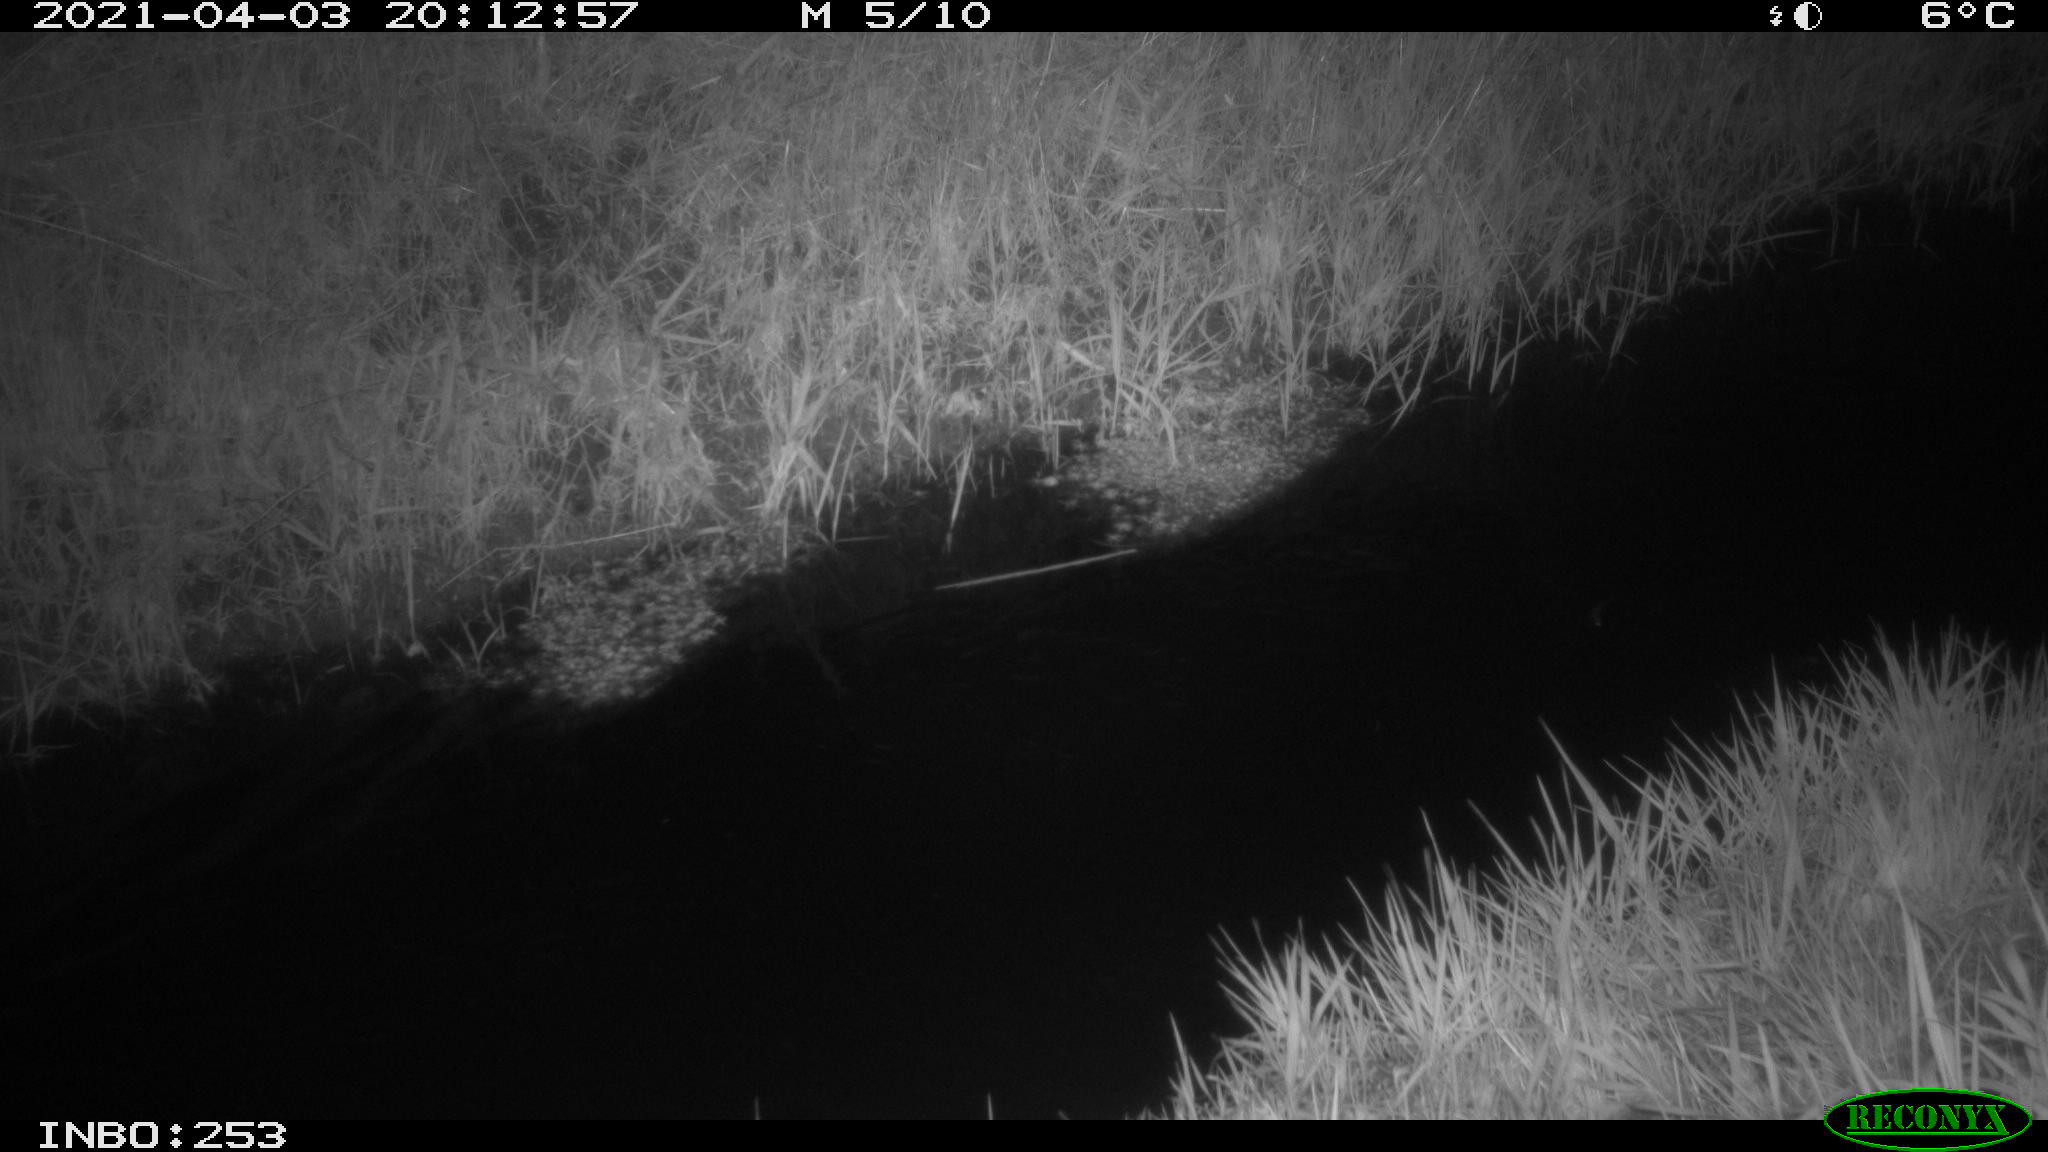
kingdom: Animalia
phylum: Chordata
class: Aves
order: Anseriformes
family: Anatidae
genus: Anas
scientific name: Anas platyrhynchos
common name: Mallard
